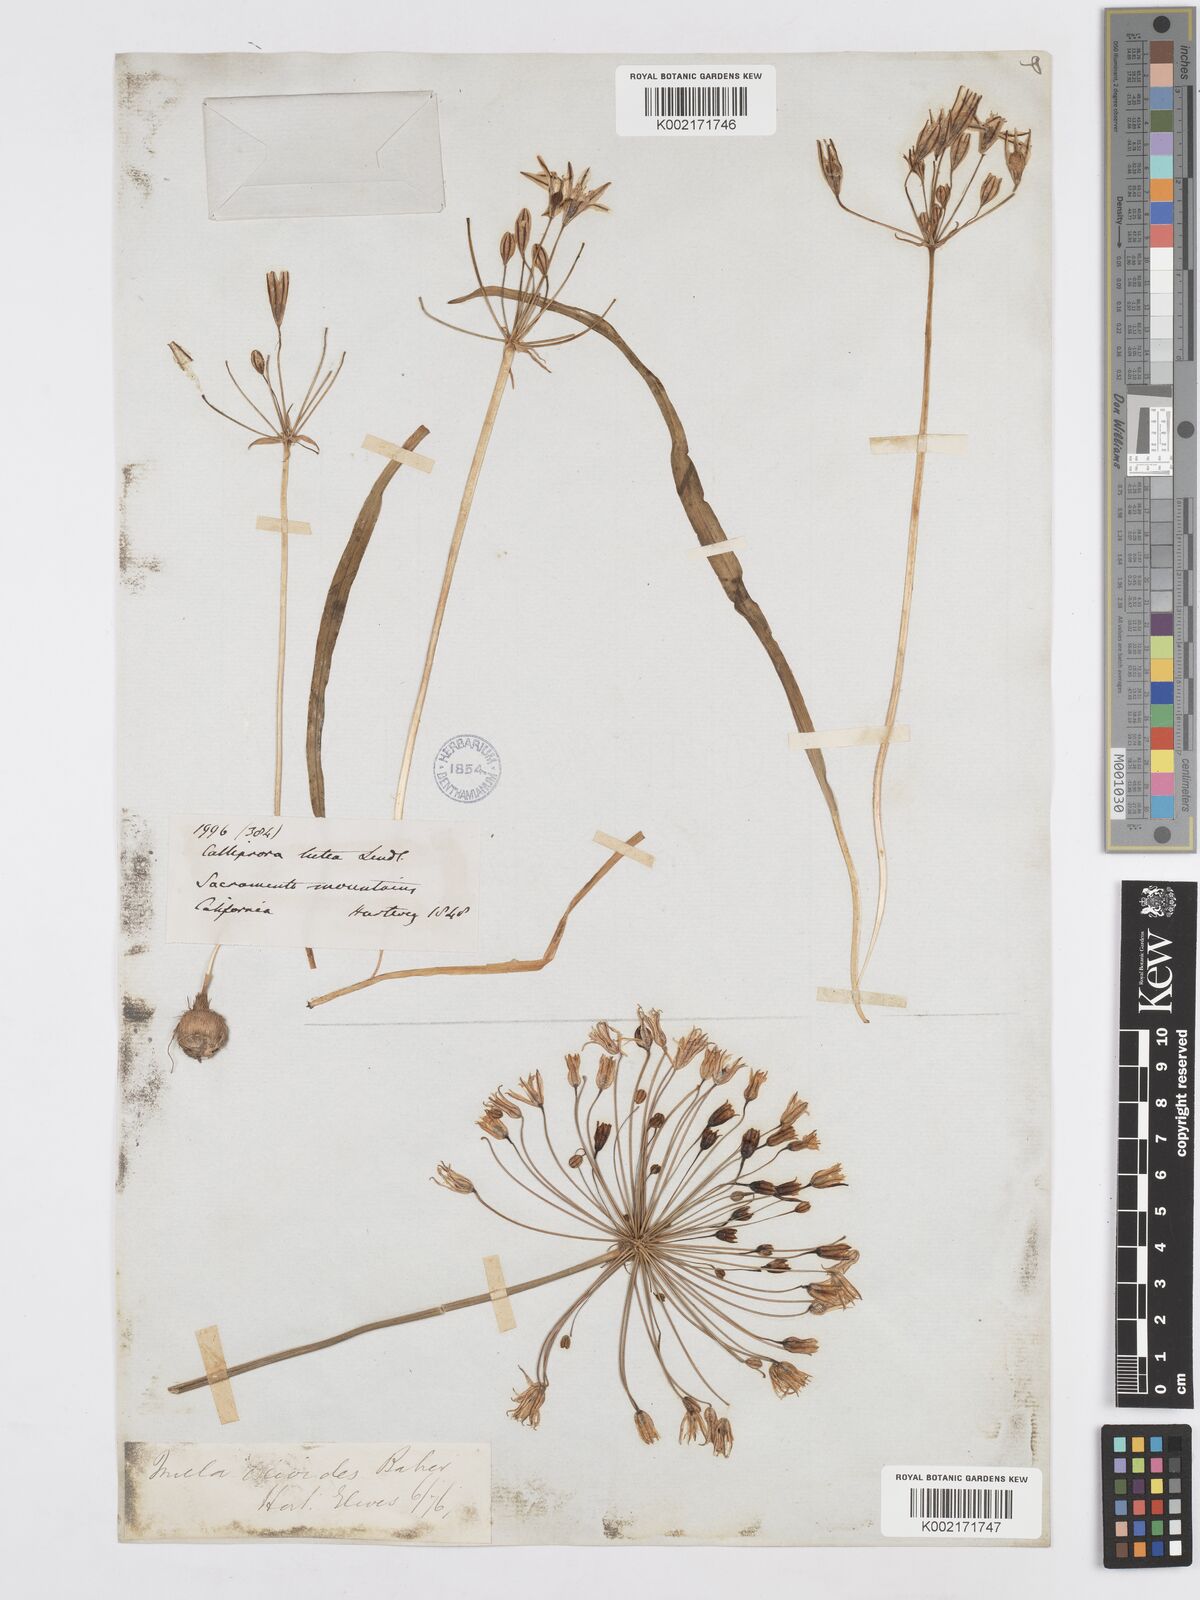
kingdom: Plantae
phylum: Tracheophyta
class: Liliopsida
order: Asparagales
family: Asparagaceae
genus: Triteleia
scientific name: Triteleia ixioides
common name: Yellow-brodiaea
